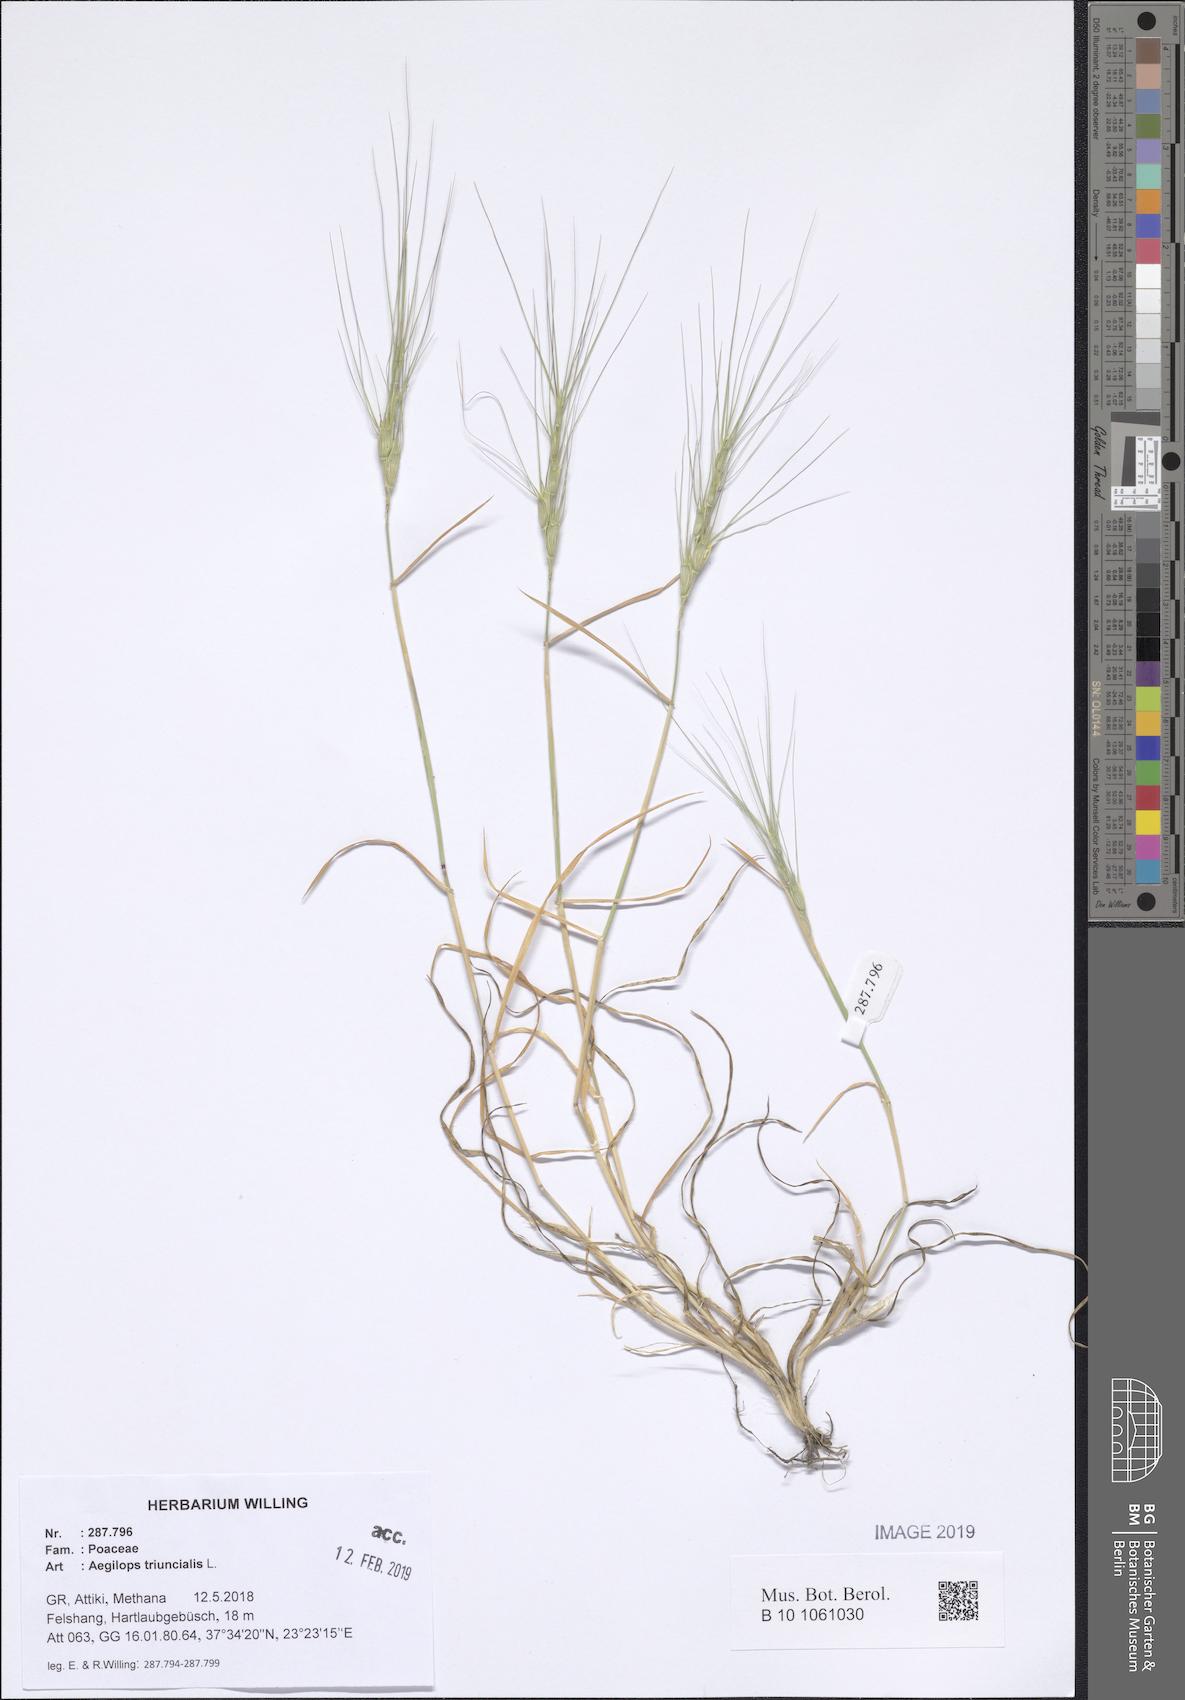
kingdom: Plantae
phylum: Tracheophyta
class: Liliopsida
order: Poales
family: Poaceae
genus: Aegilops
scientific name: Aegilops triuncialis
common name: Barb goat grass
